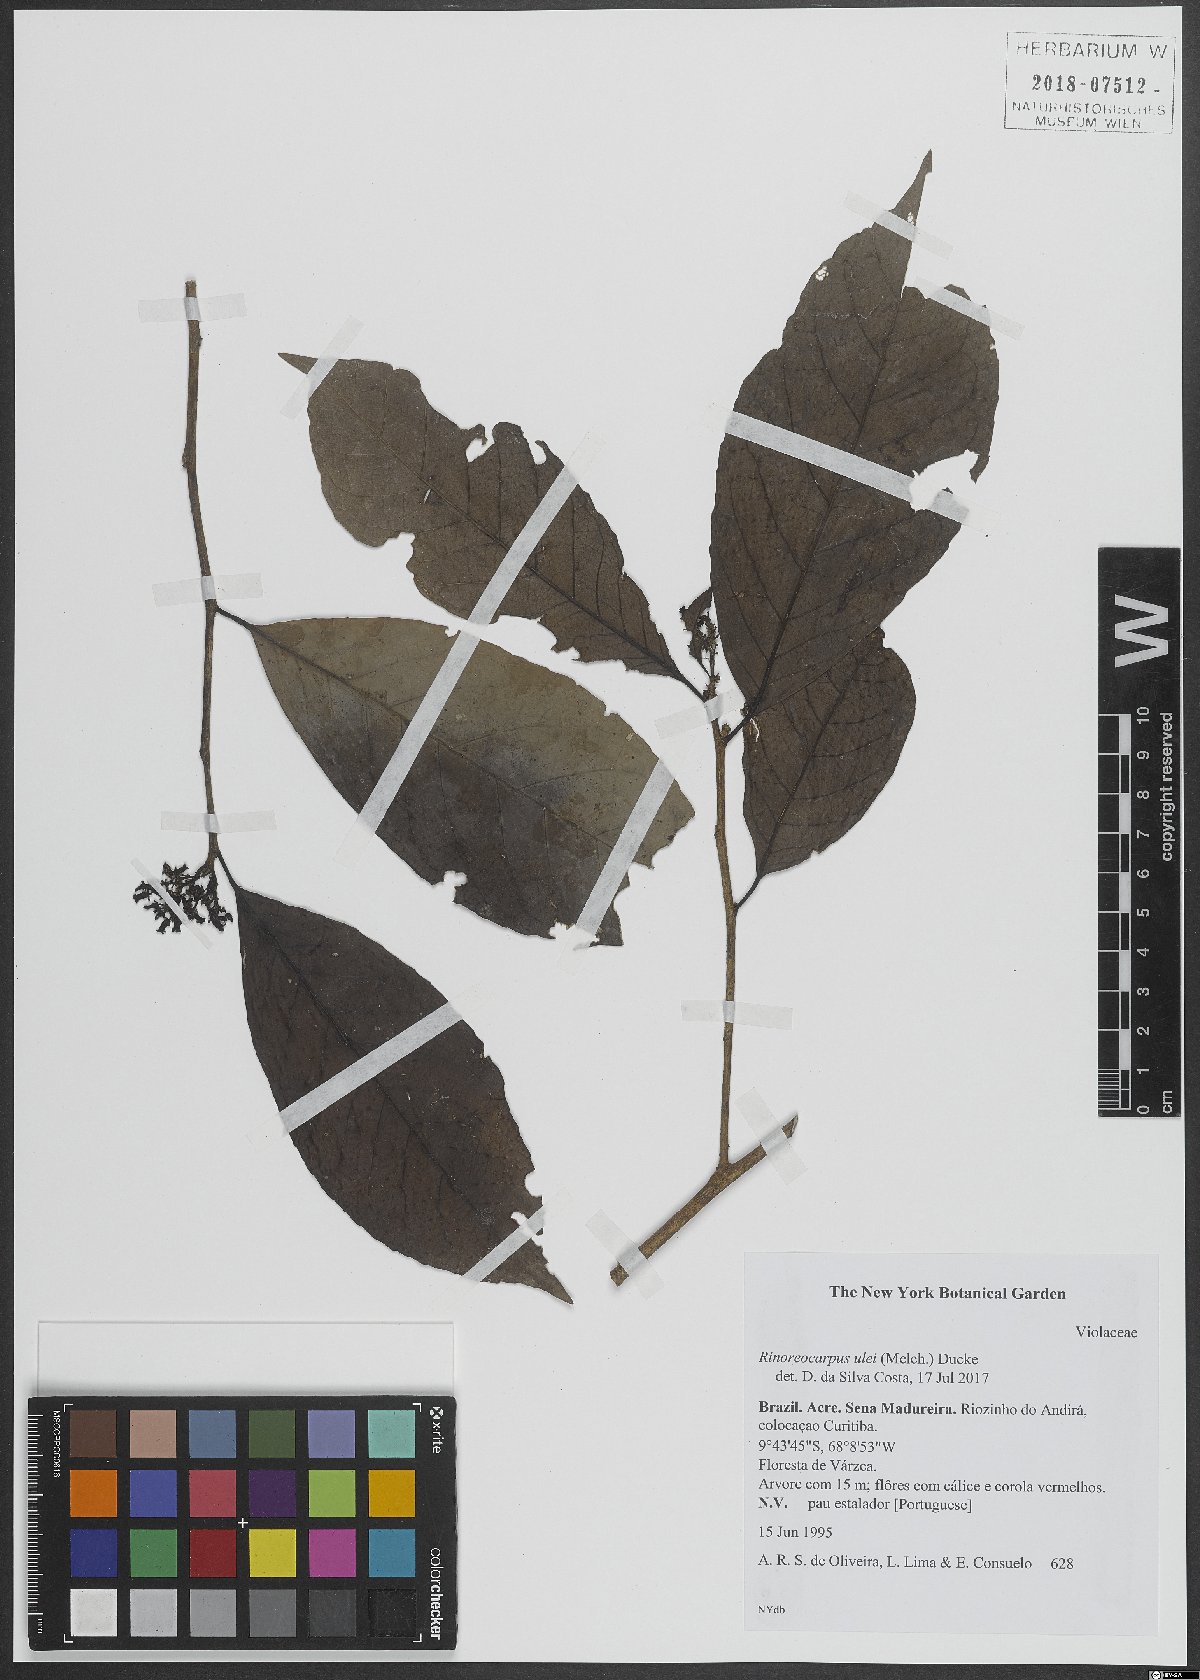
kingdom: Plantae
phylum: Tracheophyta
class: Magnoliopsida
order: Malpighiales
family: Violaceae
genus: Rinoreocarpus
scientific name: Rinoreocarpus
